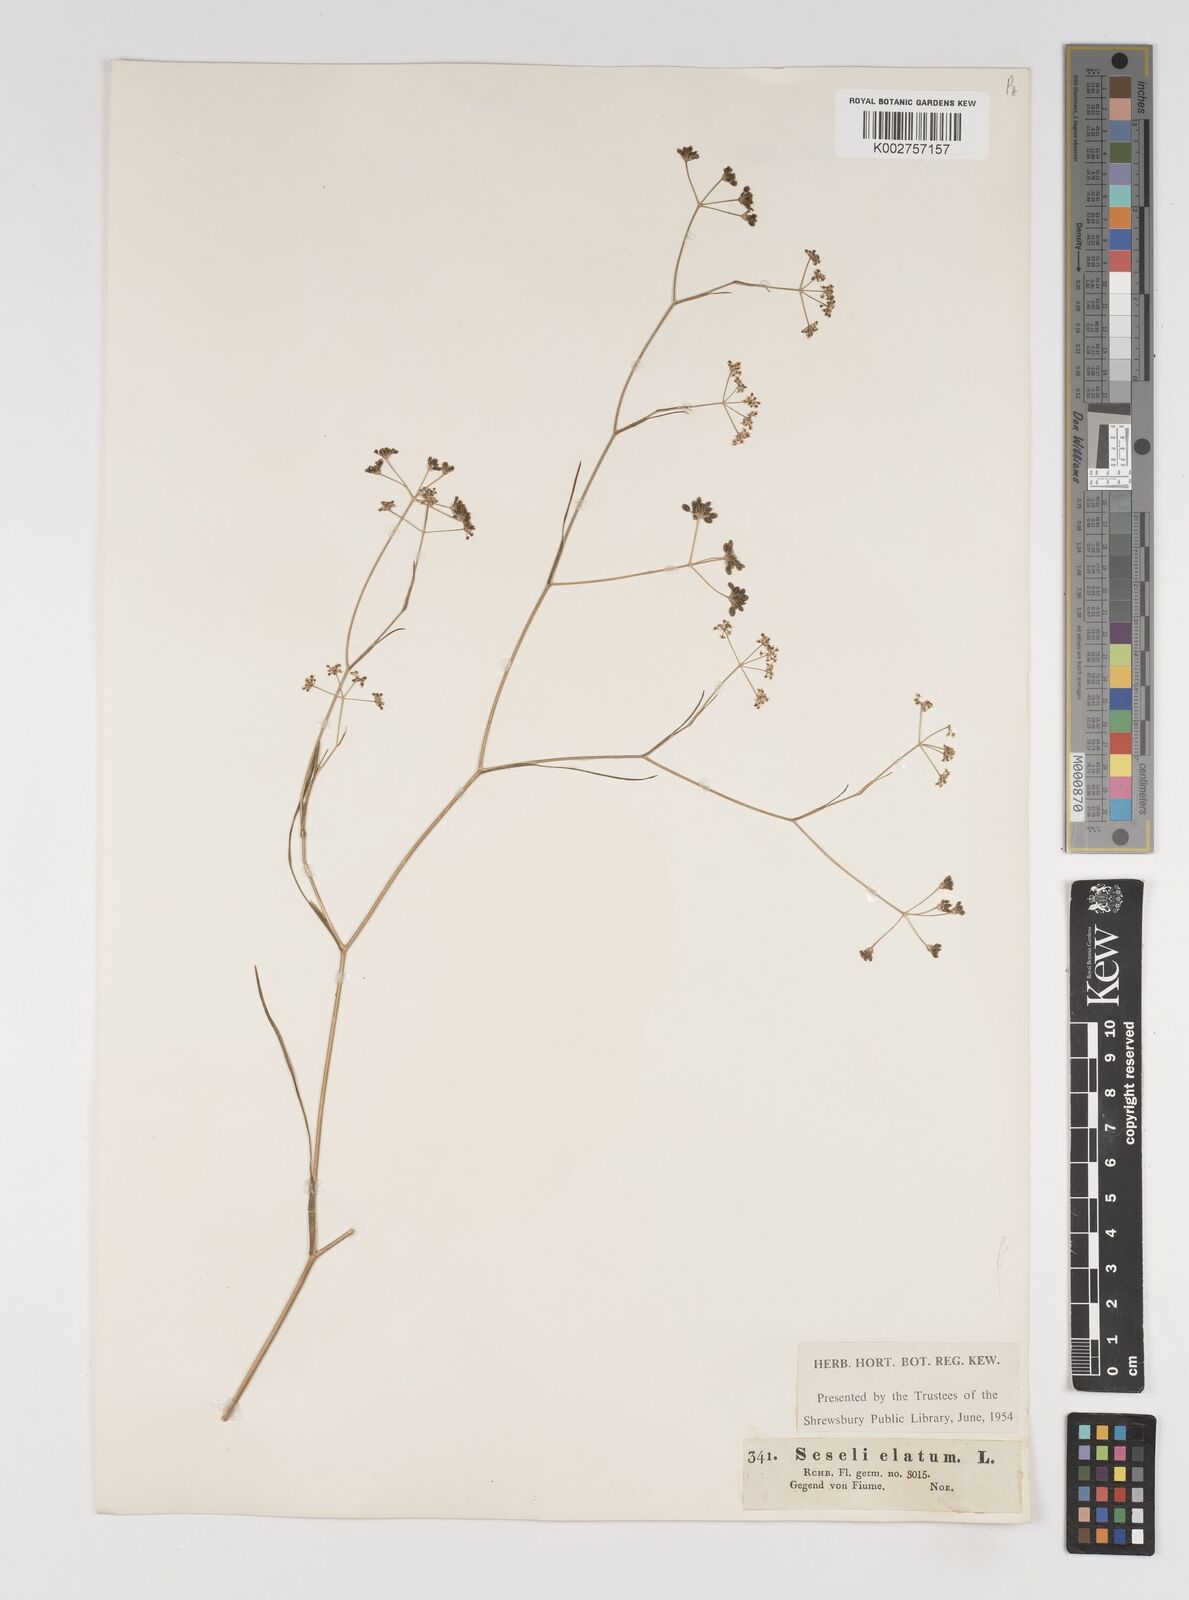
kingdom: Plantae
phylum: Tracheophyta
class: Magnoliopsida
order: Apiales
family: Apiaceae
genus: Seseli
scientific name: Seseli longifolium
